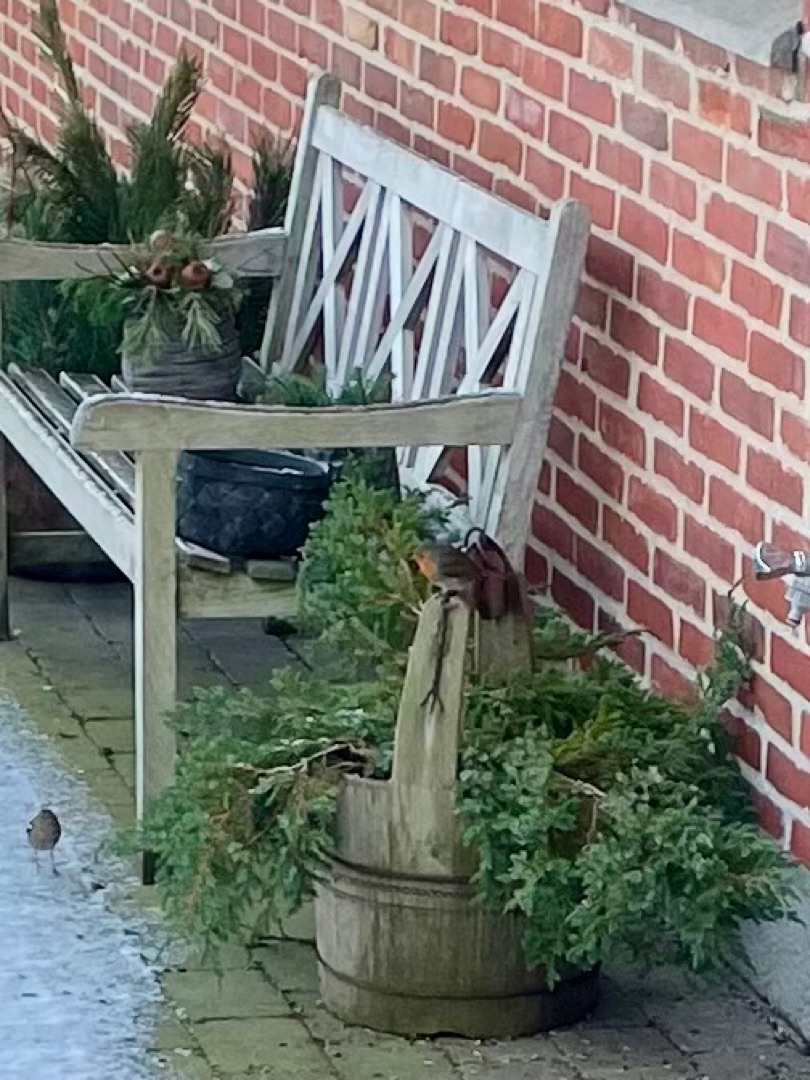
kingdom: Animalia
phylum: Chordata
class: Aves
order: Passeriformes
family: Muscicapidae
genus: Erithacus
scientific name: Erithacus rubecula
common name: Rødhals/rødkælk
